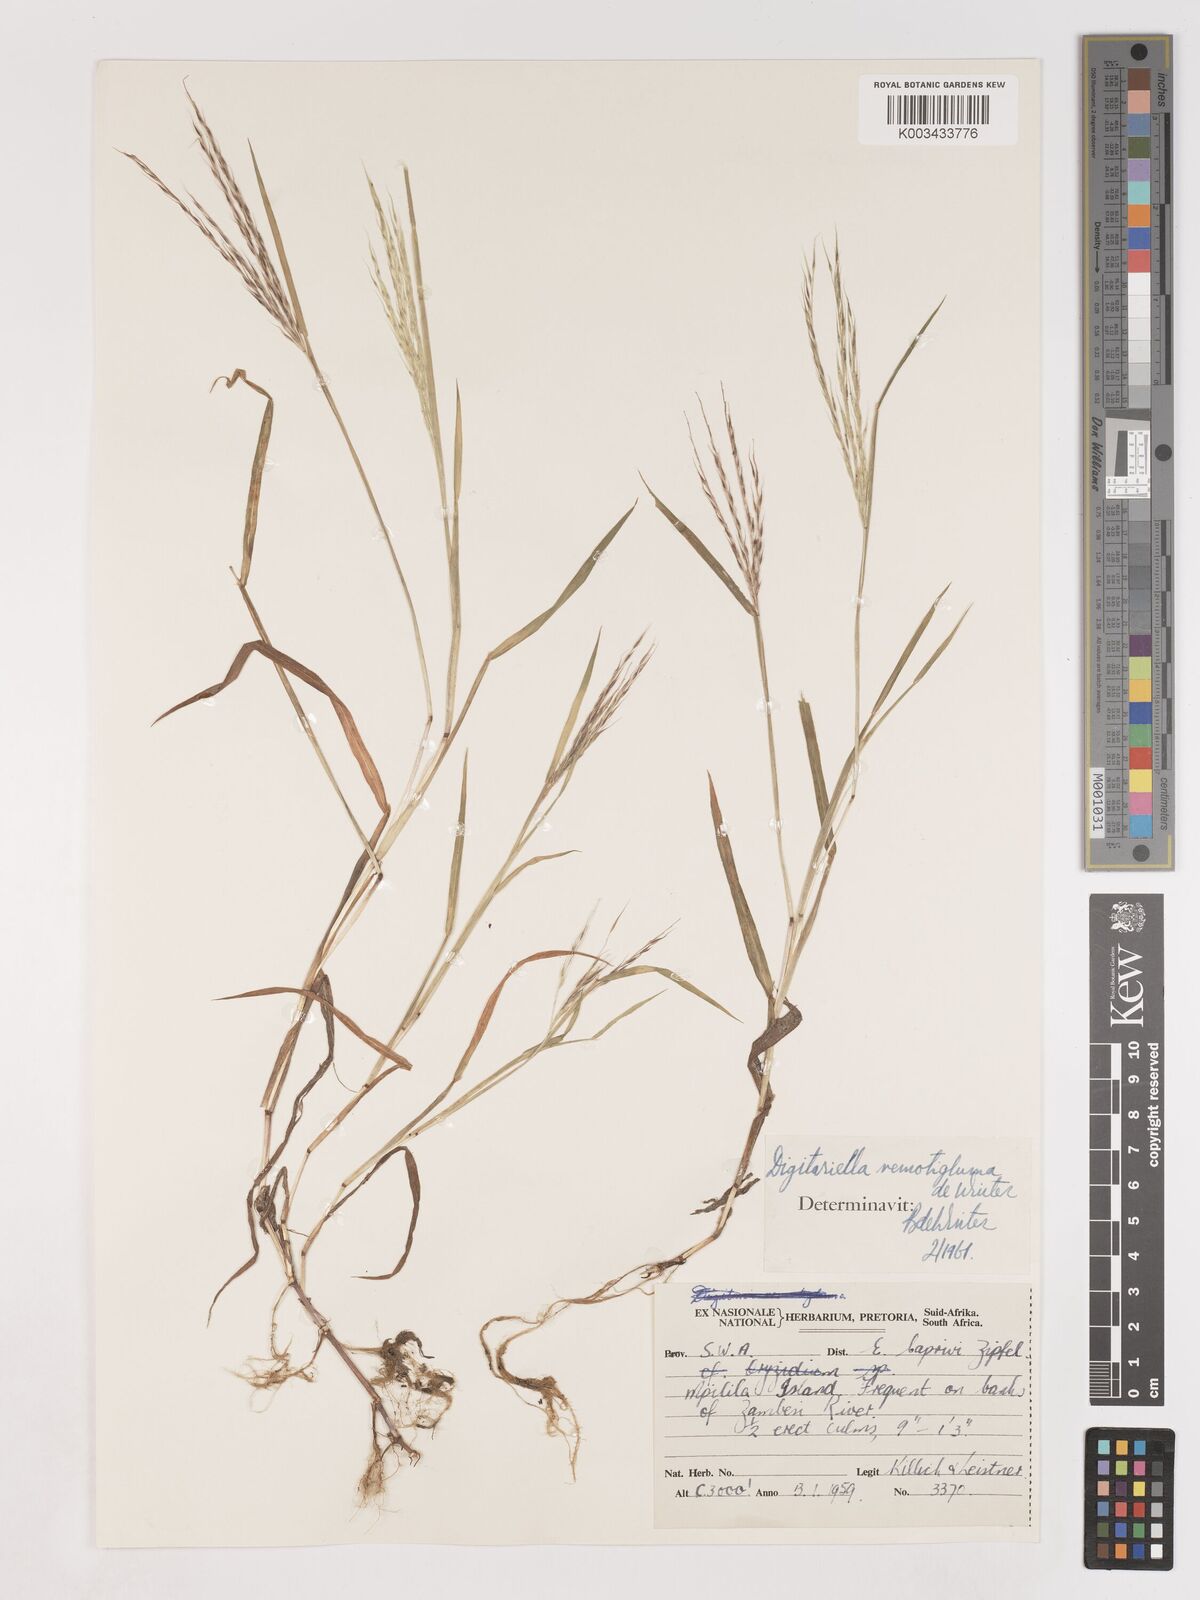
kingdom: Plantae
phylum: Tracheophyta
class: Liliopsida
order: Poales
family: Poaceae
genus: Digitaria
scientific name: Digitaria remotigluma
